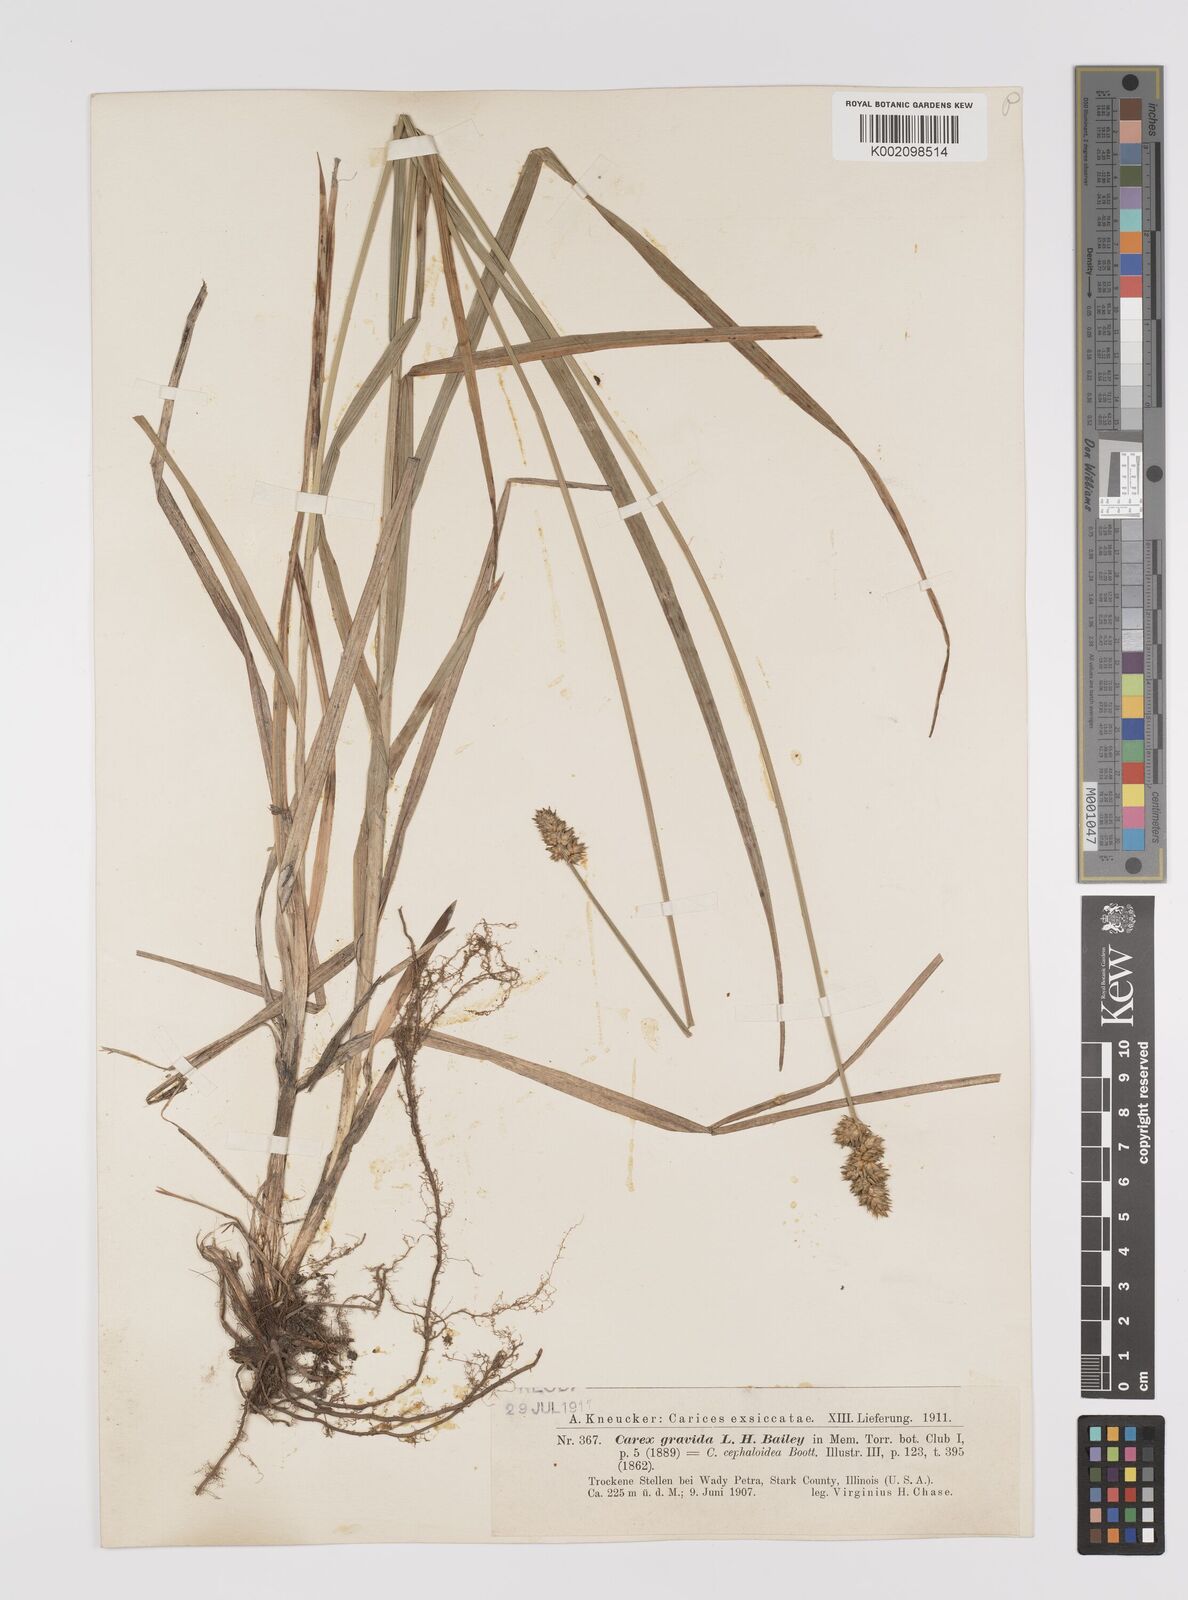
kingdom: Plantae
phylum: Tracheophyta
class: Liliopsida
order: Poales
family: Cyperaceae
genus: Carex
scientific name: Carex cephalophora
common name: Oval-headed sedge
